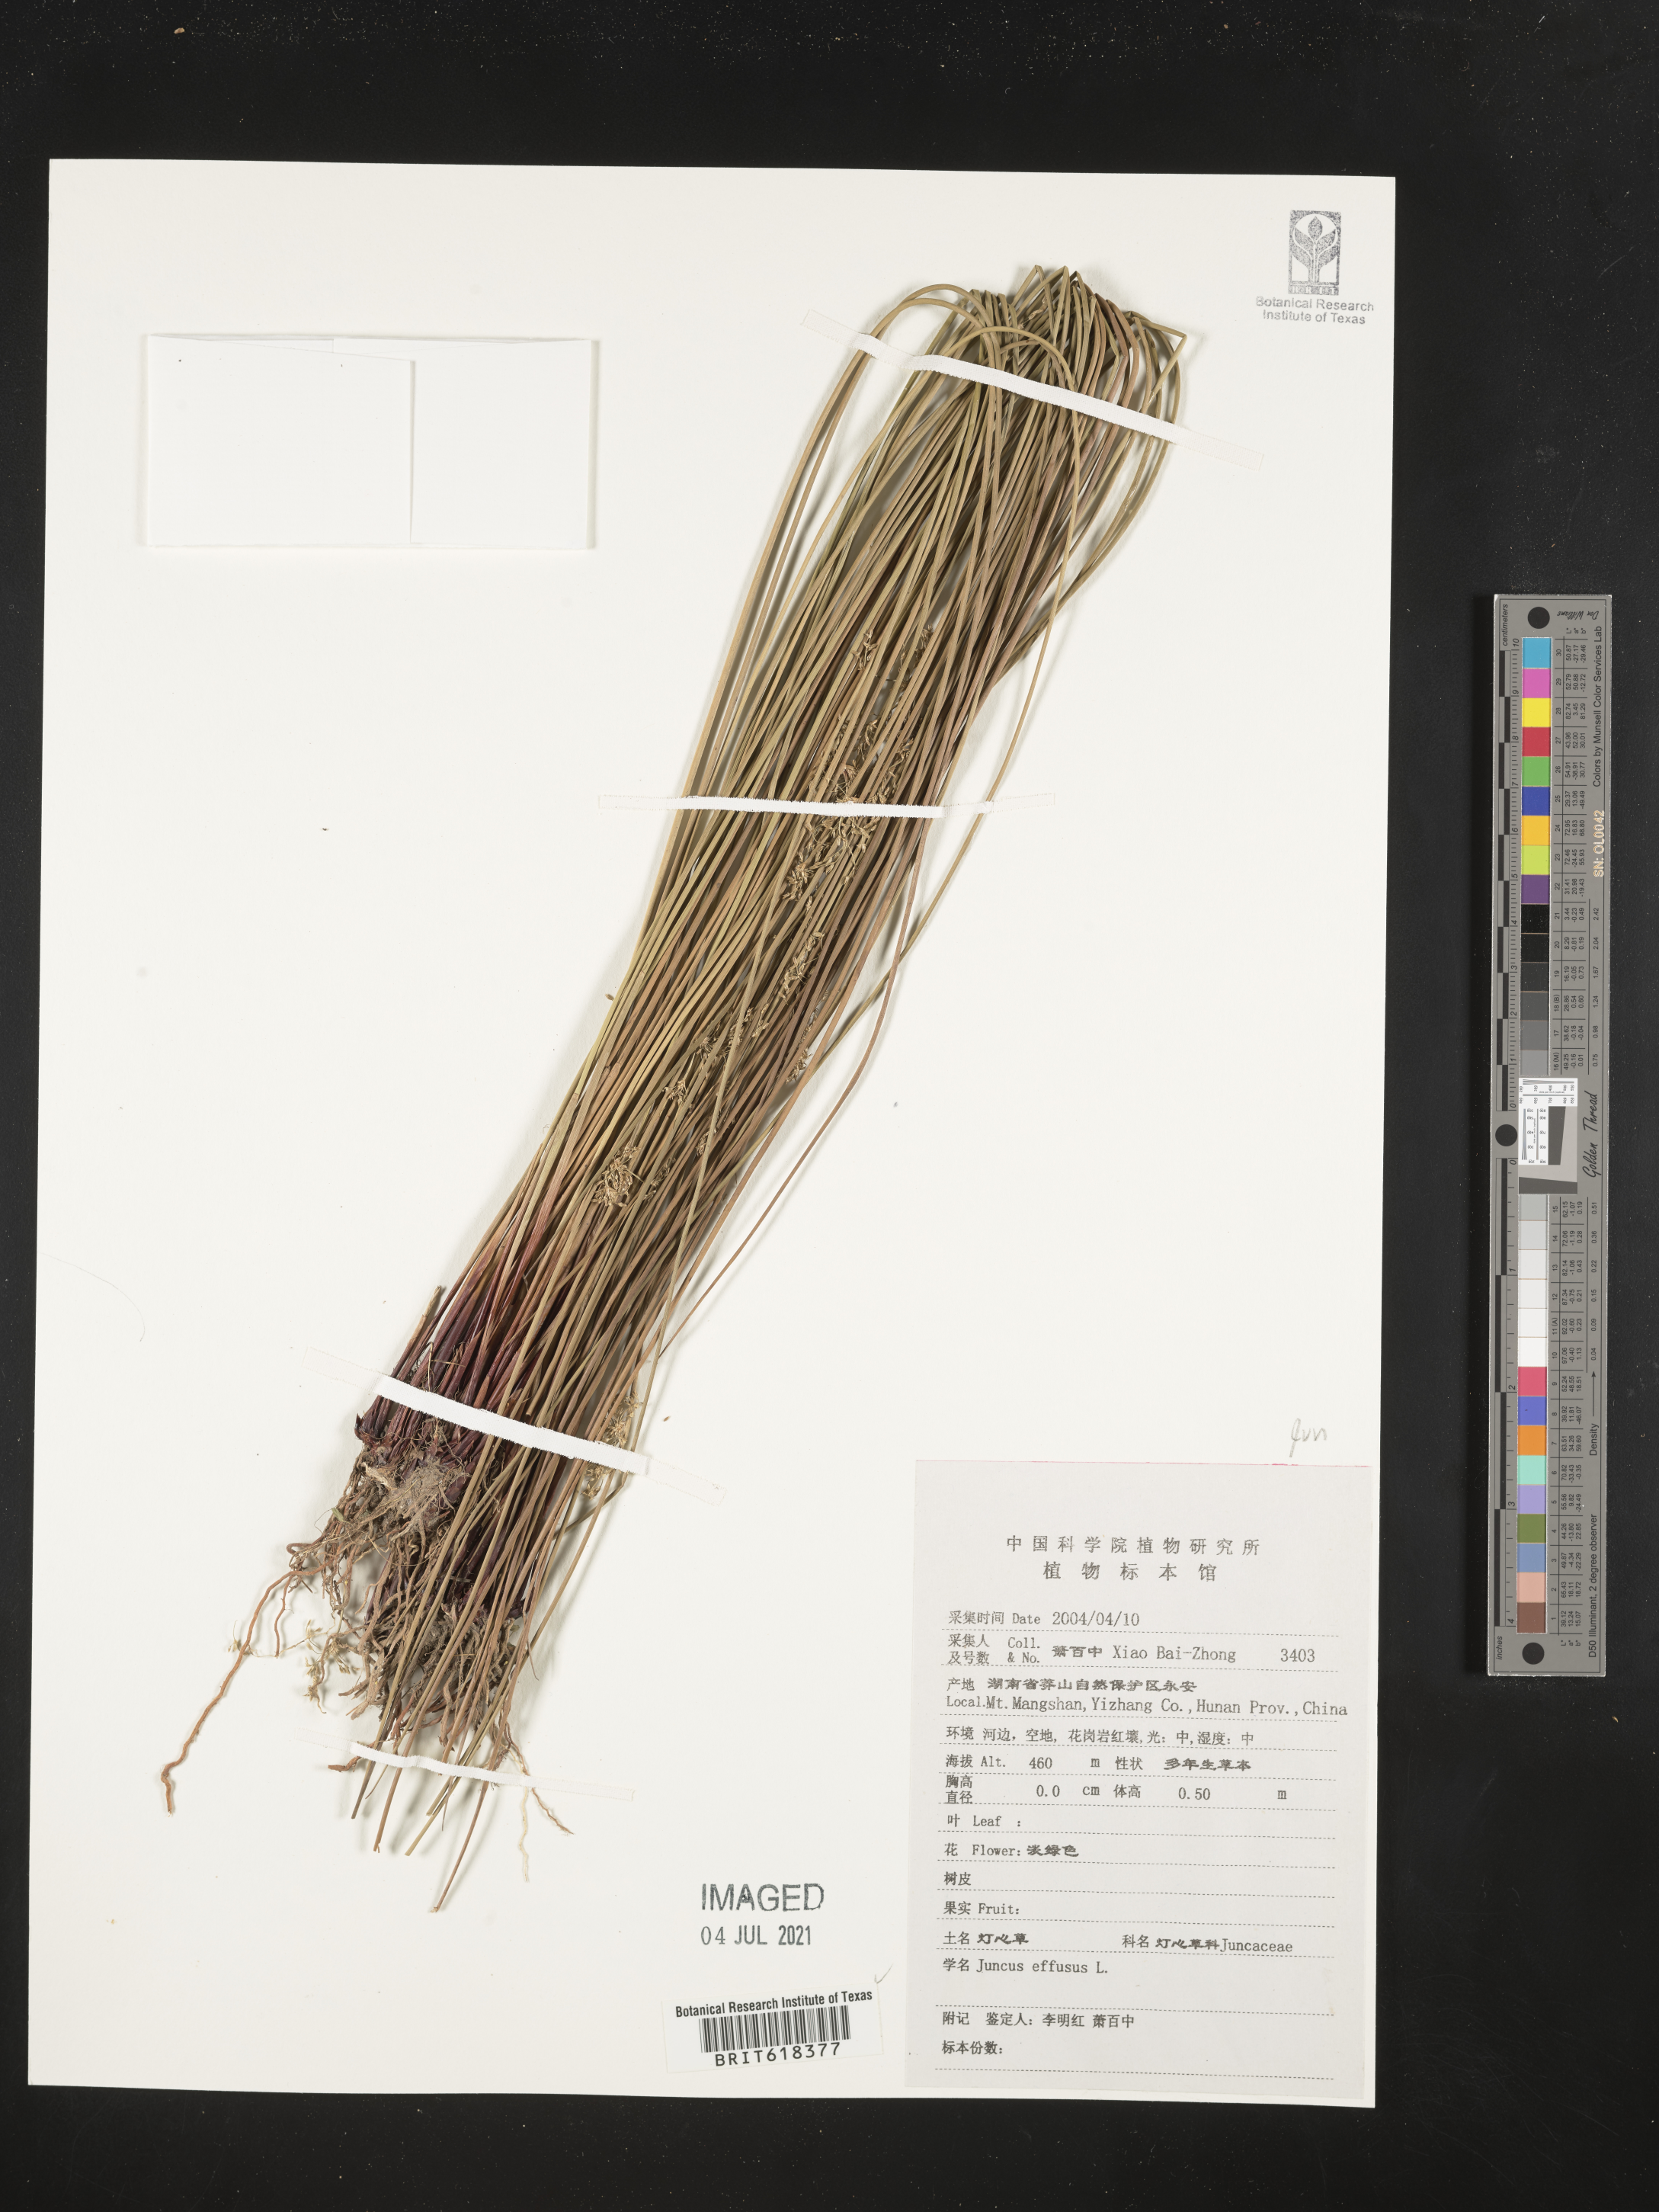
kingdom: Plantae
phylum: Tracheophyta
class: Liliopsida
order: Poales
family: Juncaceae
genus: Juncus
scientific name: Juncus effusus
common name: Soft rush
